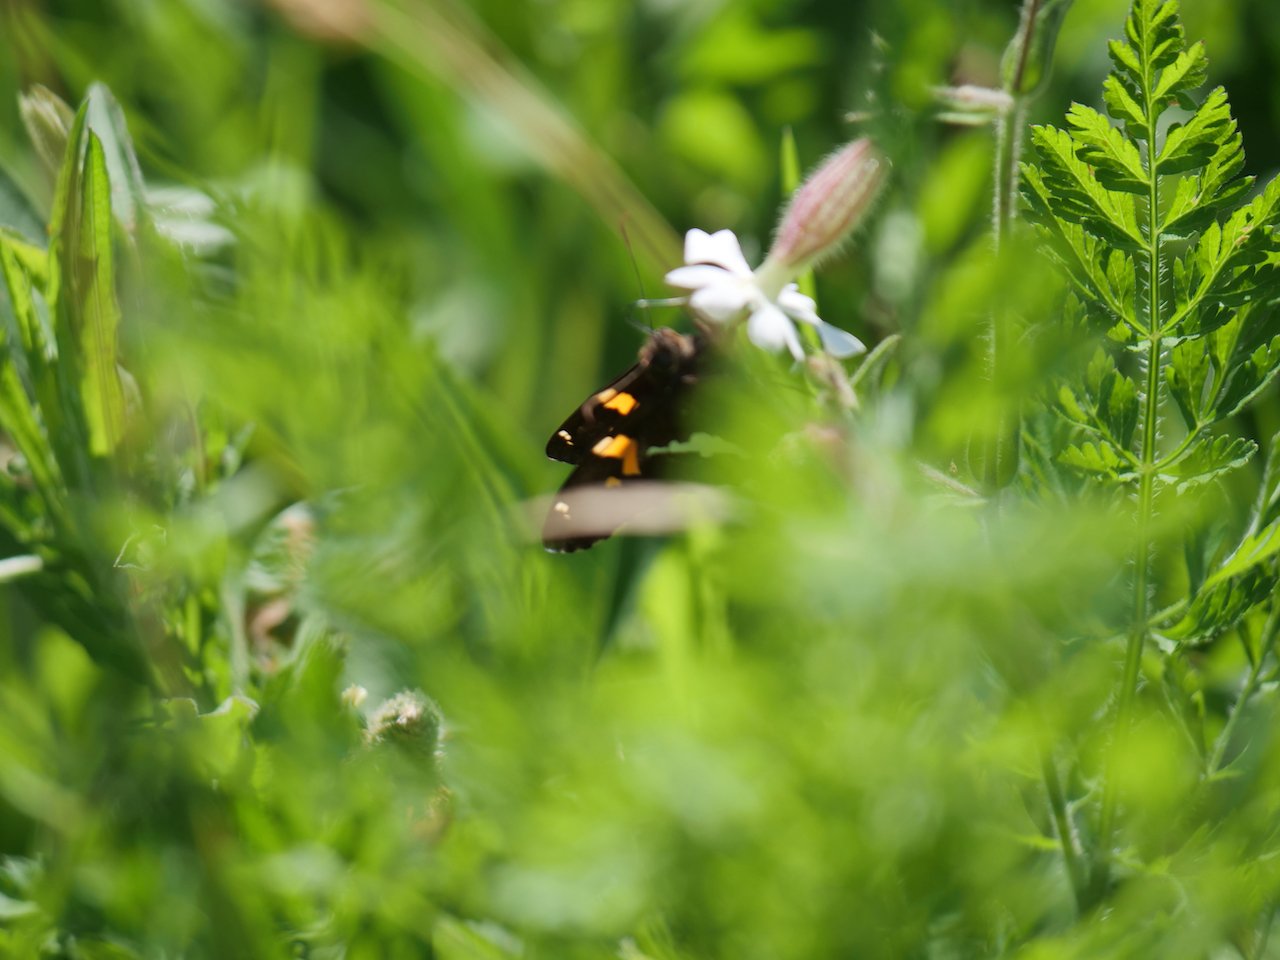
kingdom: Animalia
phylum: Arthropoda
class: Insecta
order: Lepidoptera
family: Hesperiidae
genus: Epargyreus
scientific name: Epargyreus clarus
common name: Silver-spotted Skipper
